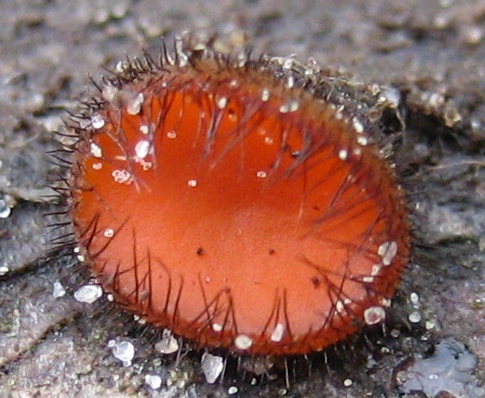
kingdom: Fungi
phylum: Ascomycota
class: Pezizomycetes
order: Pezizales
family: Pyronemataceae
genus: Scutellinia
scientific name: Scutellinia scutellata
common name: frynset skjoldbæger
